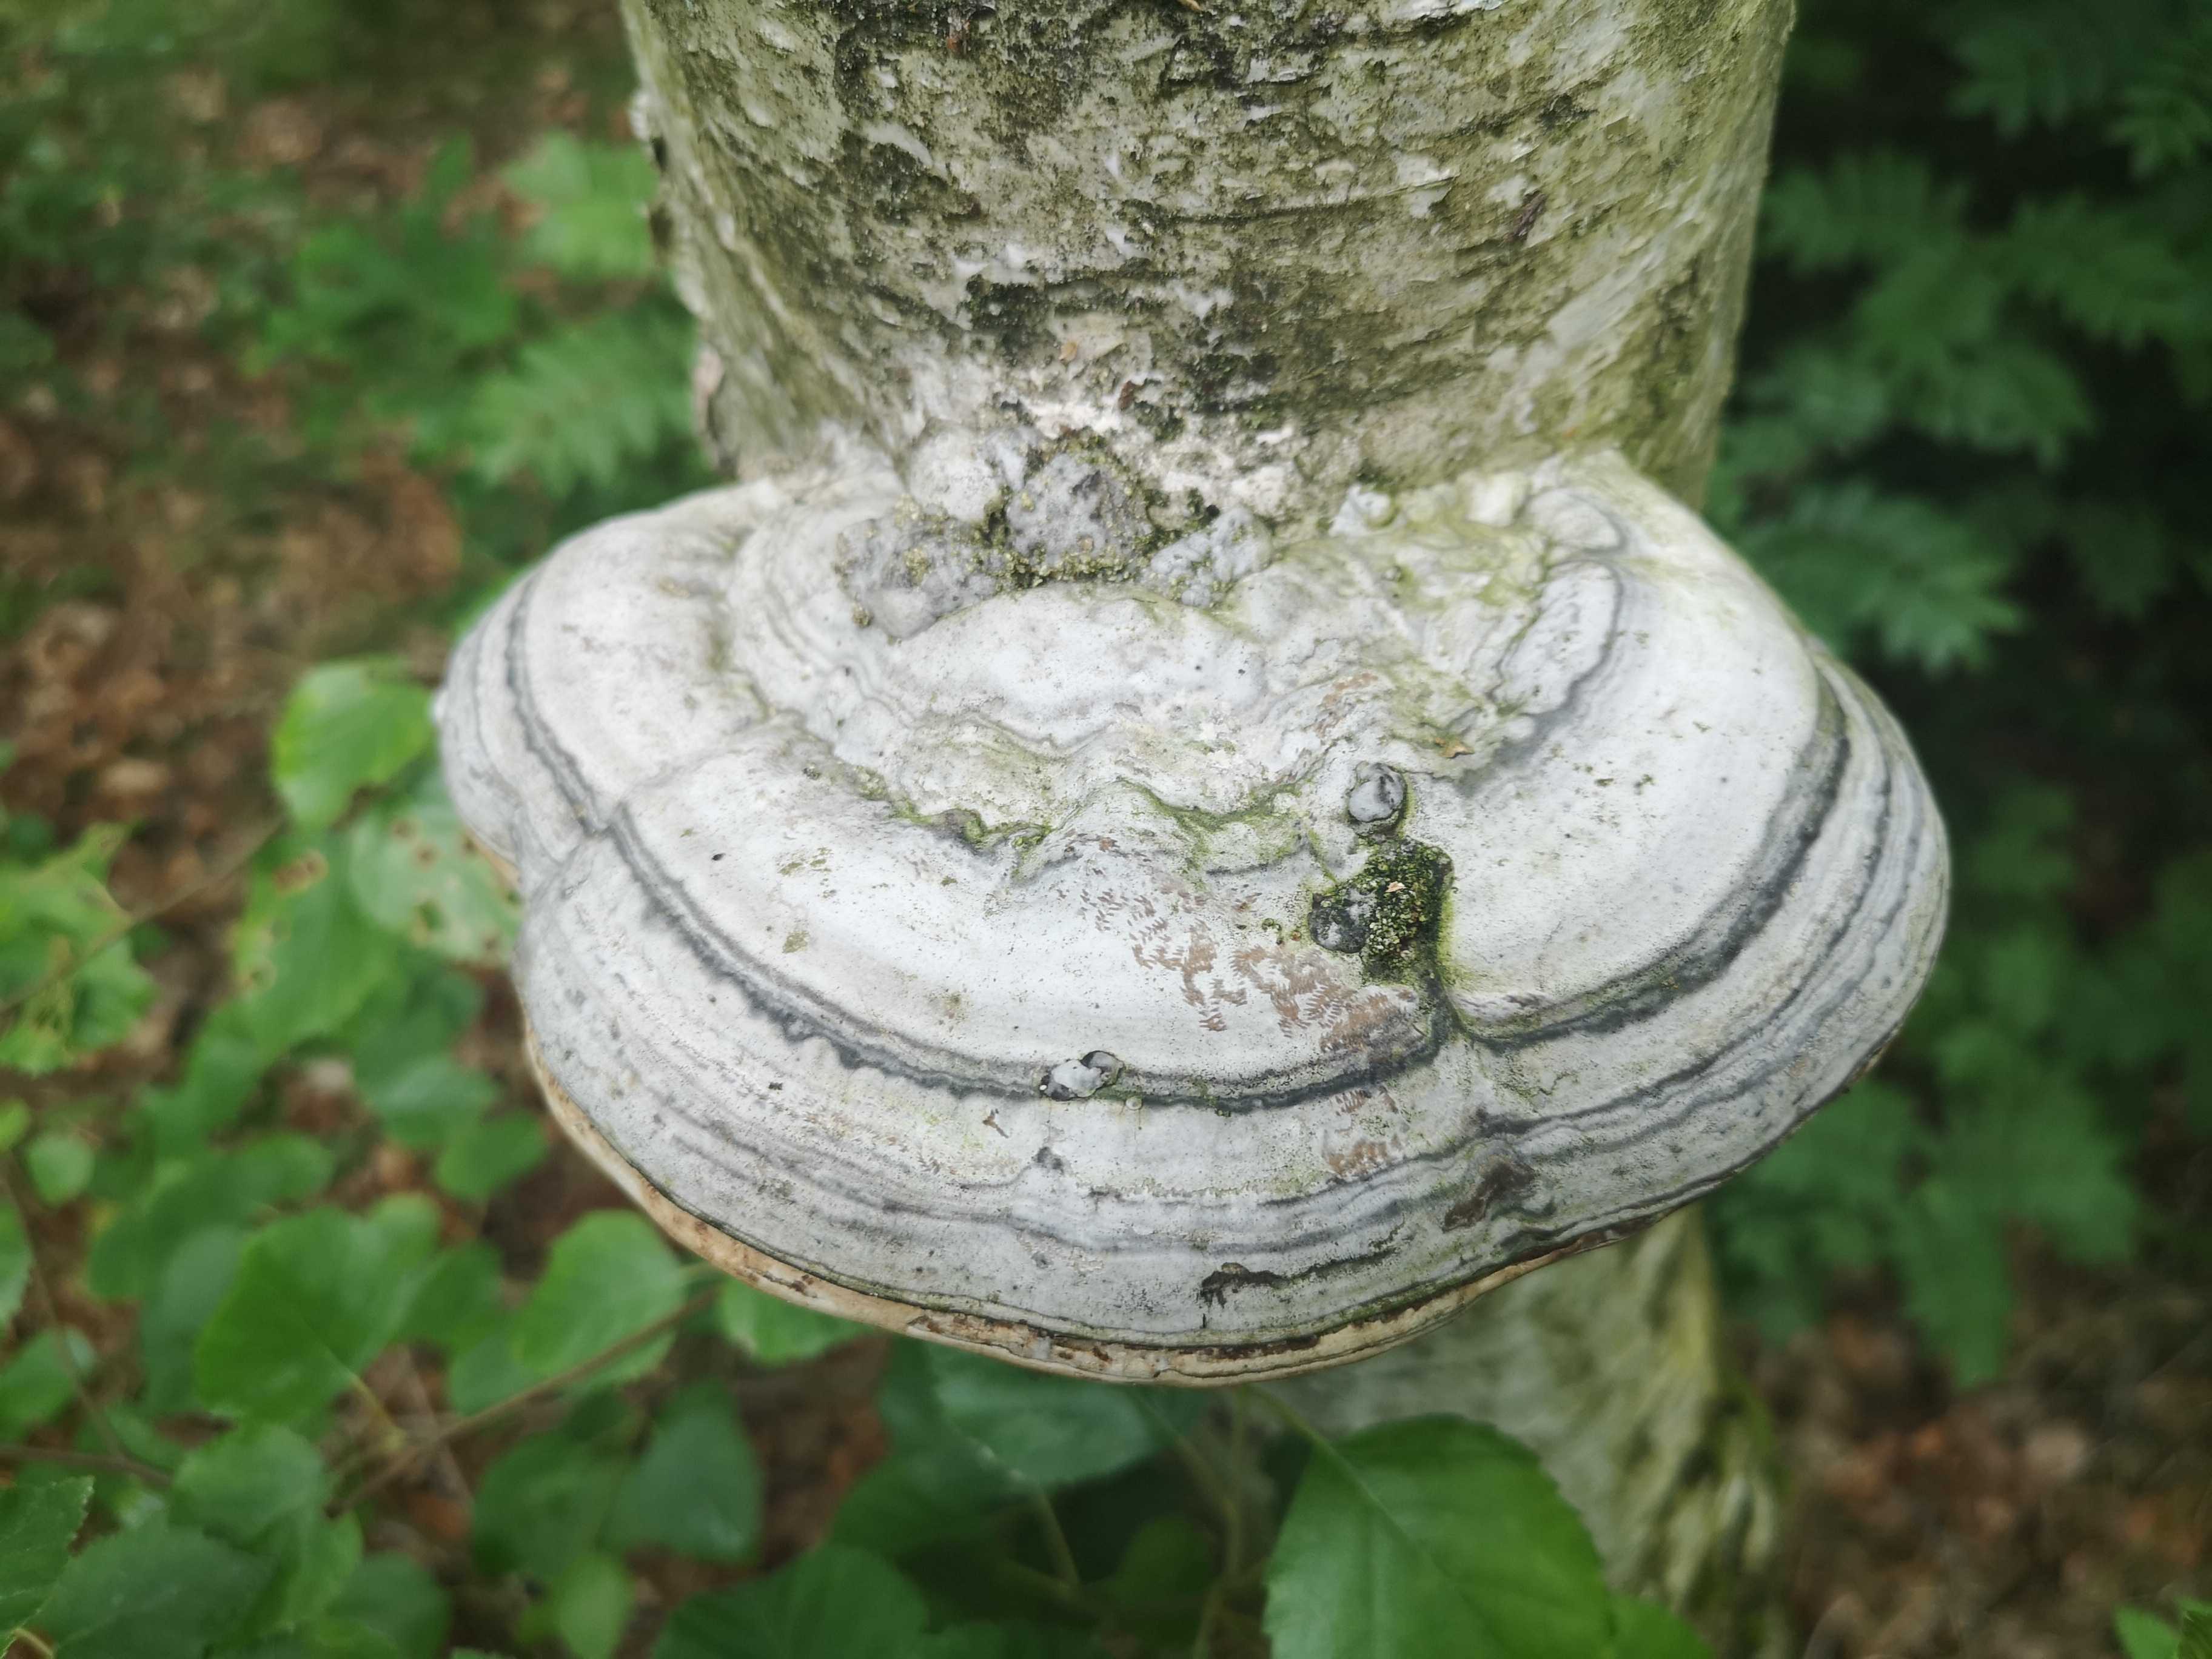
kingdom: Fungi
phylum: Basidiomycota
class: Agaricomycetes
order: Polyporales
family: Polyporaceae
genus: Fomes
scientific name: Fomes fomentarius
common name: tøndersvamp
